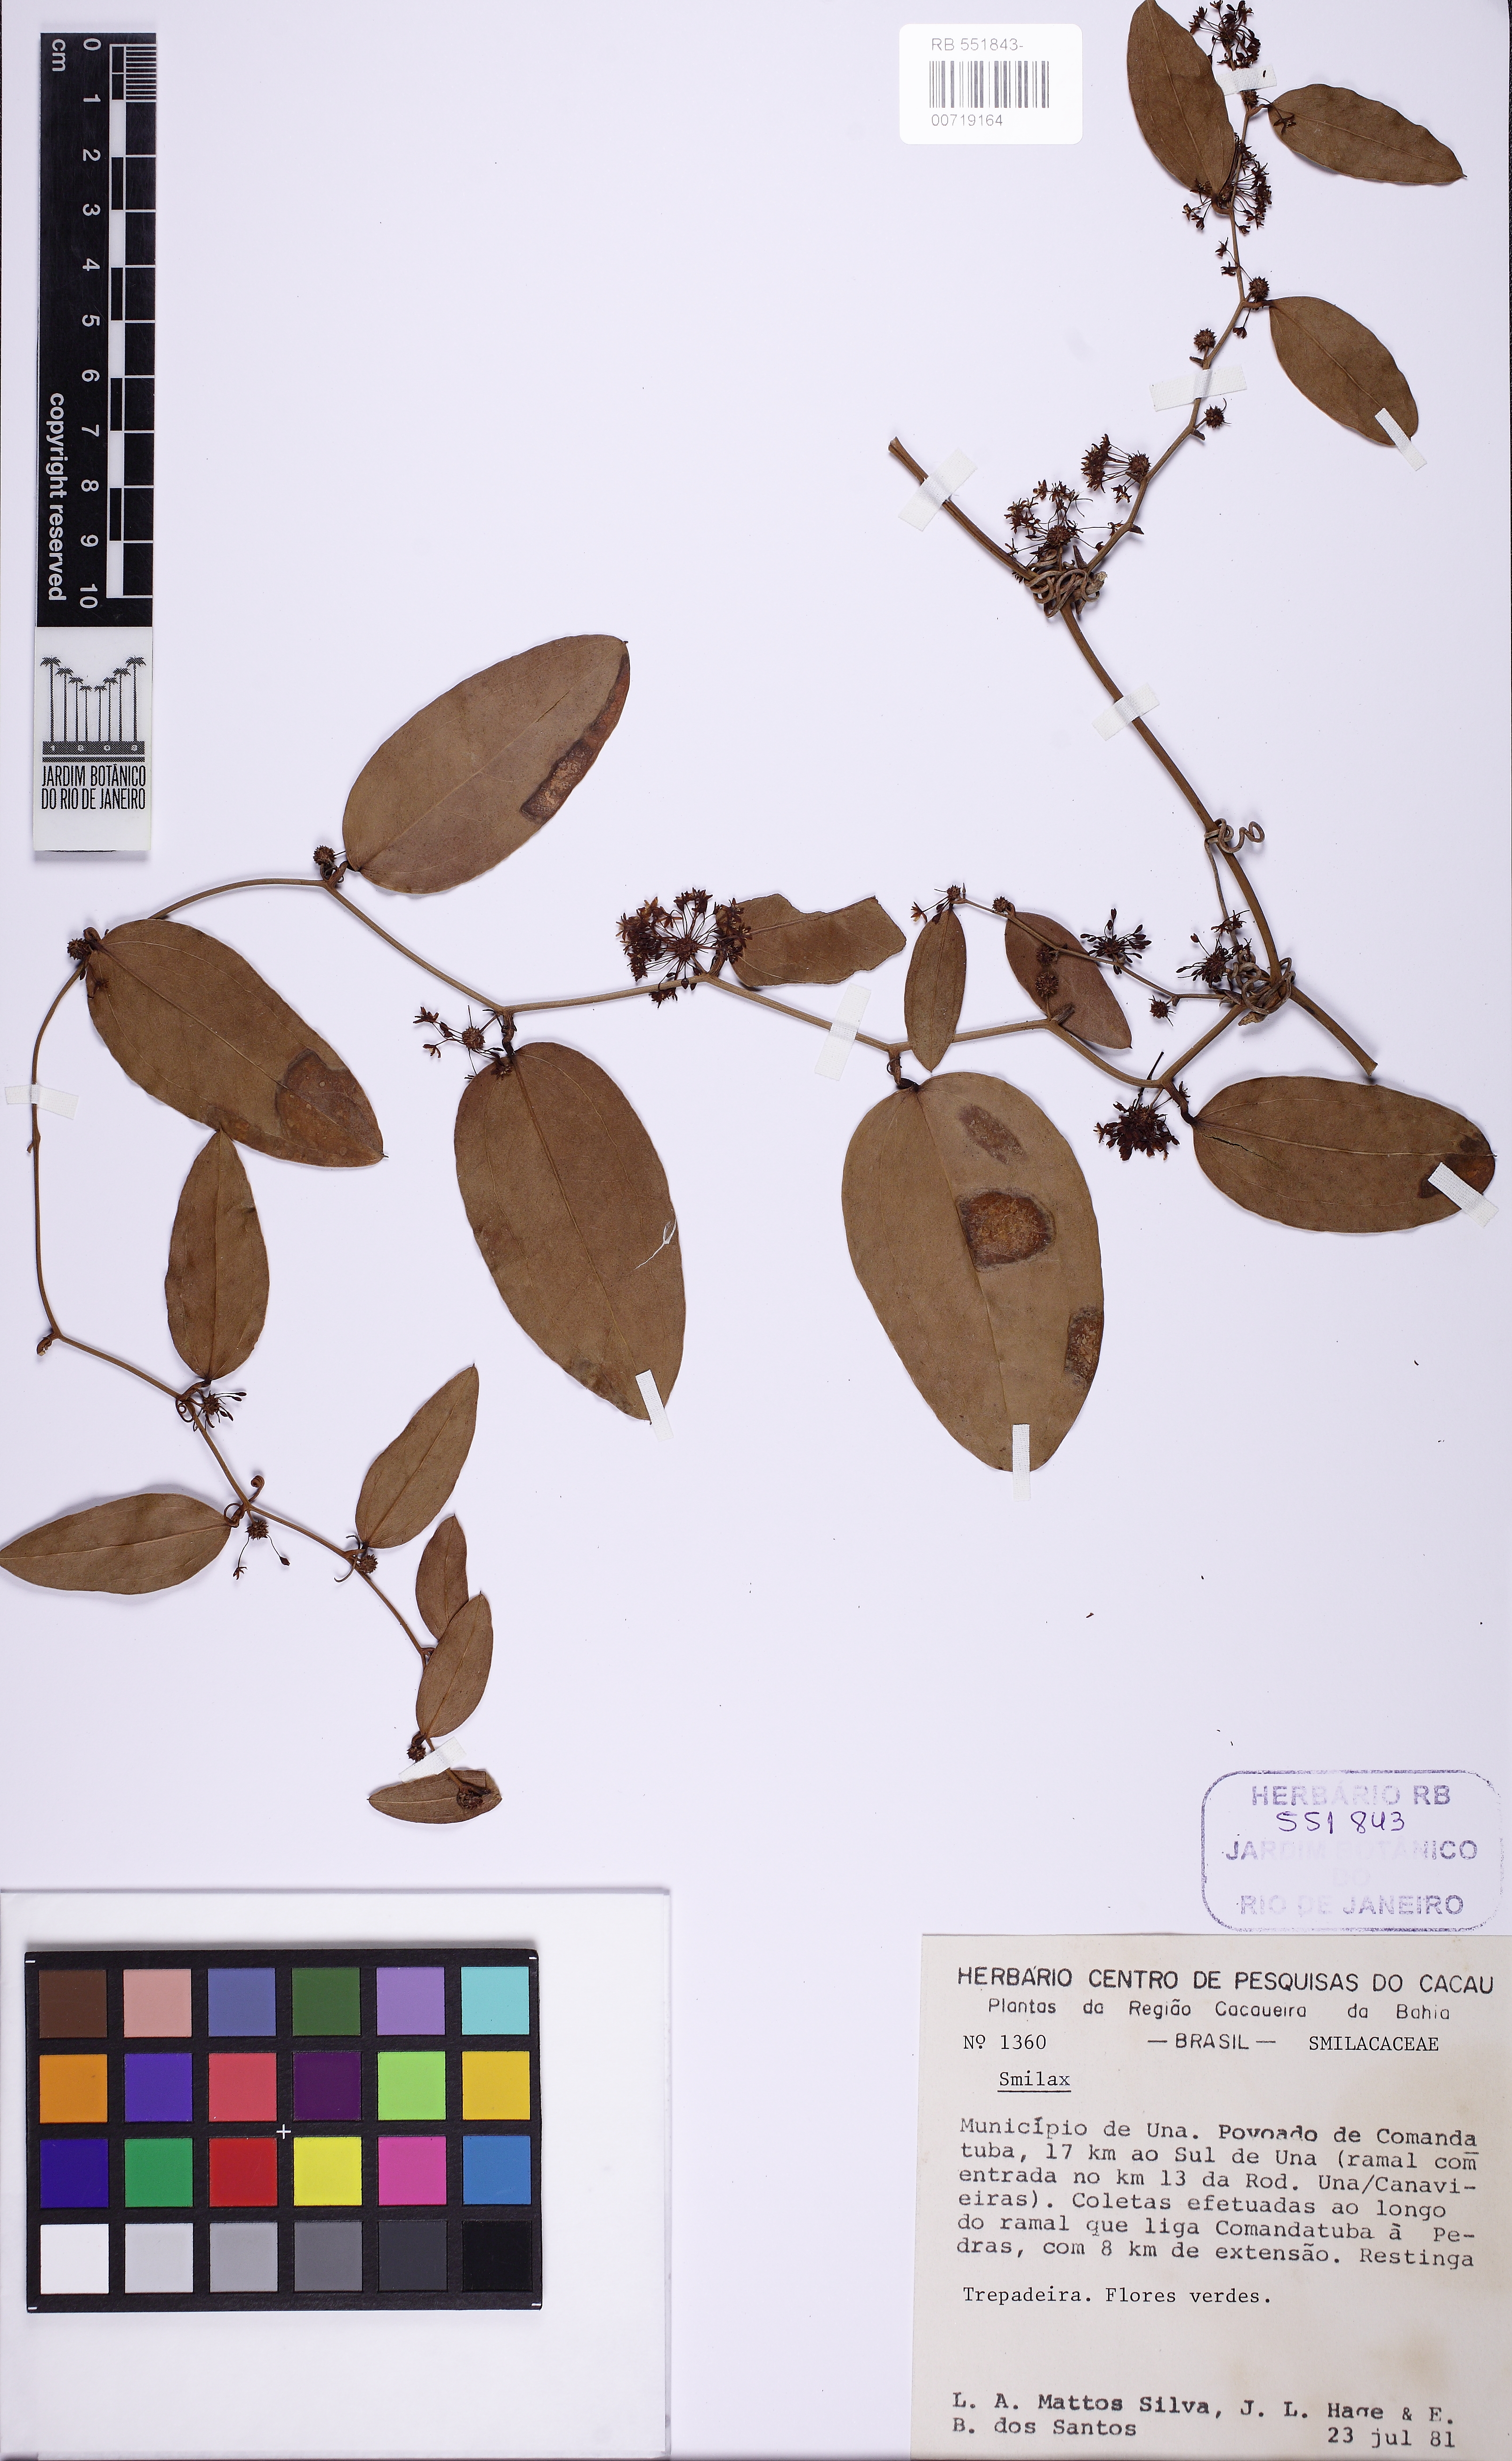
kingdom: Plantae
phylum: Tracheophyta
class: Liliopsida
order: Liliales
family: Smilacaceae
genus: Smilax
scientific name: Smilax
